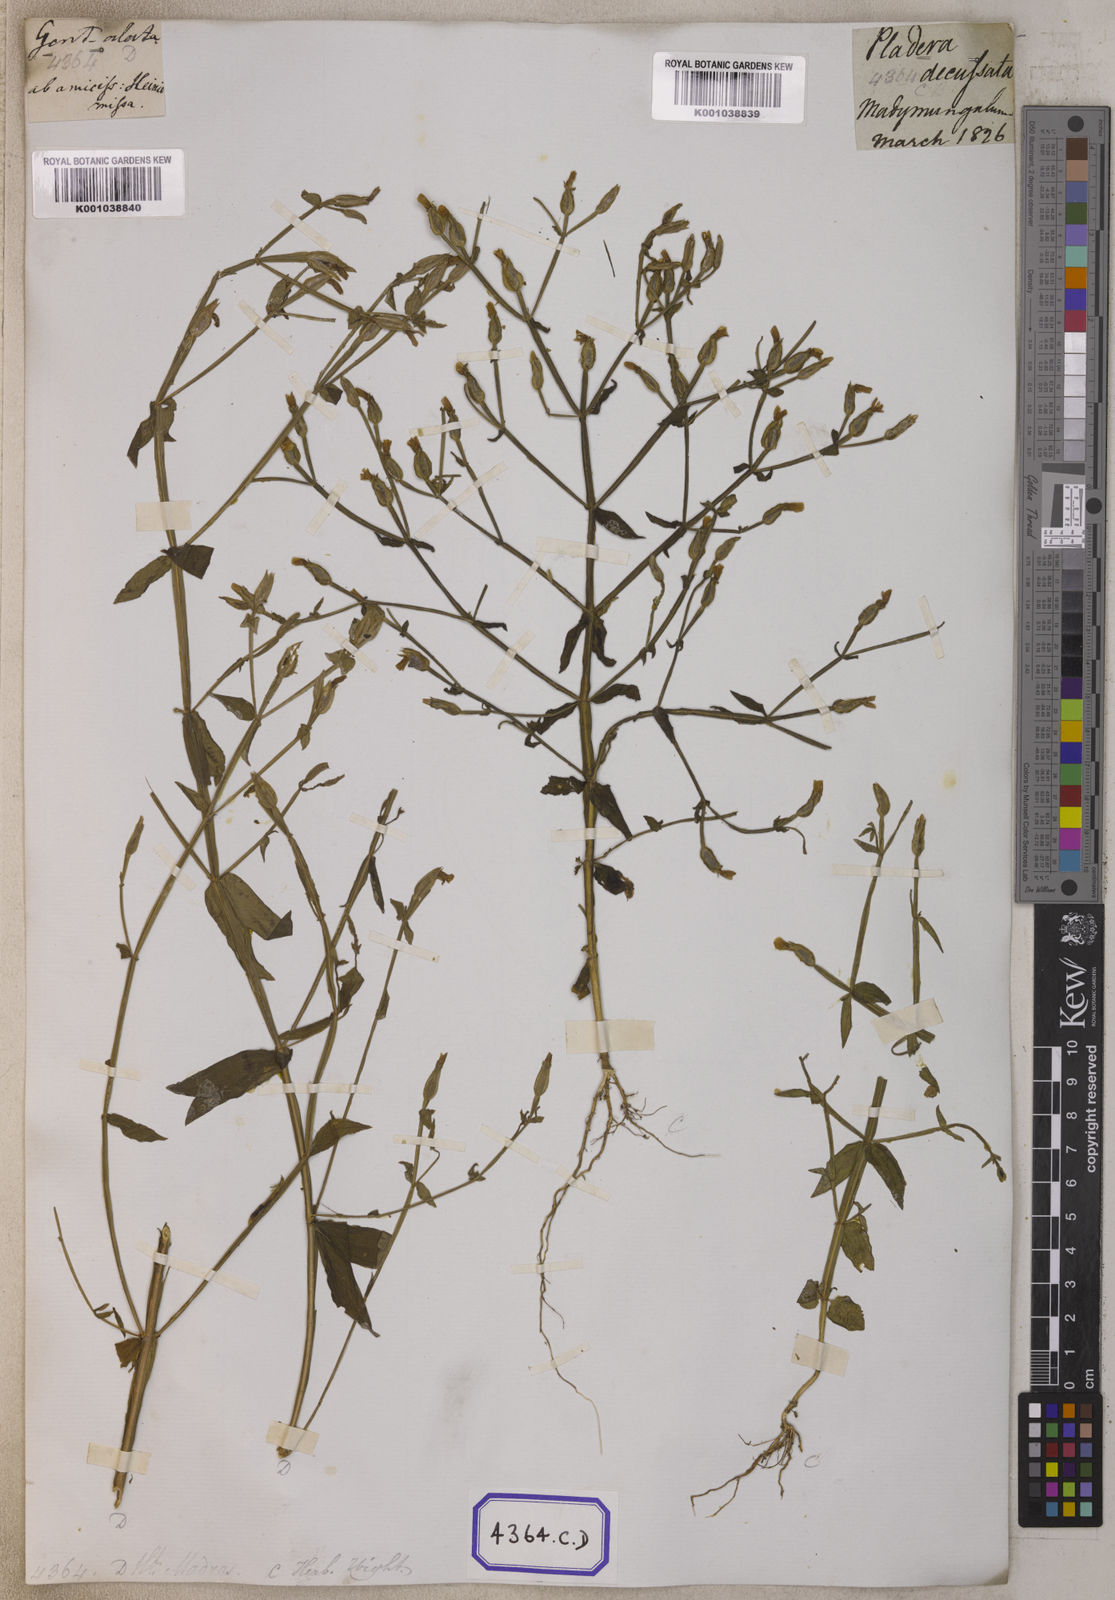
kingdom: Plantae
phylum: Tracheophyta
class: Magnoliopsida
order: Gentianales
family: Gentianaceae
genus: Canscora
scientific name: Canscora alata
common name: Canscora
